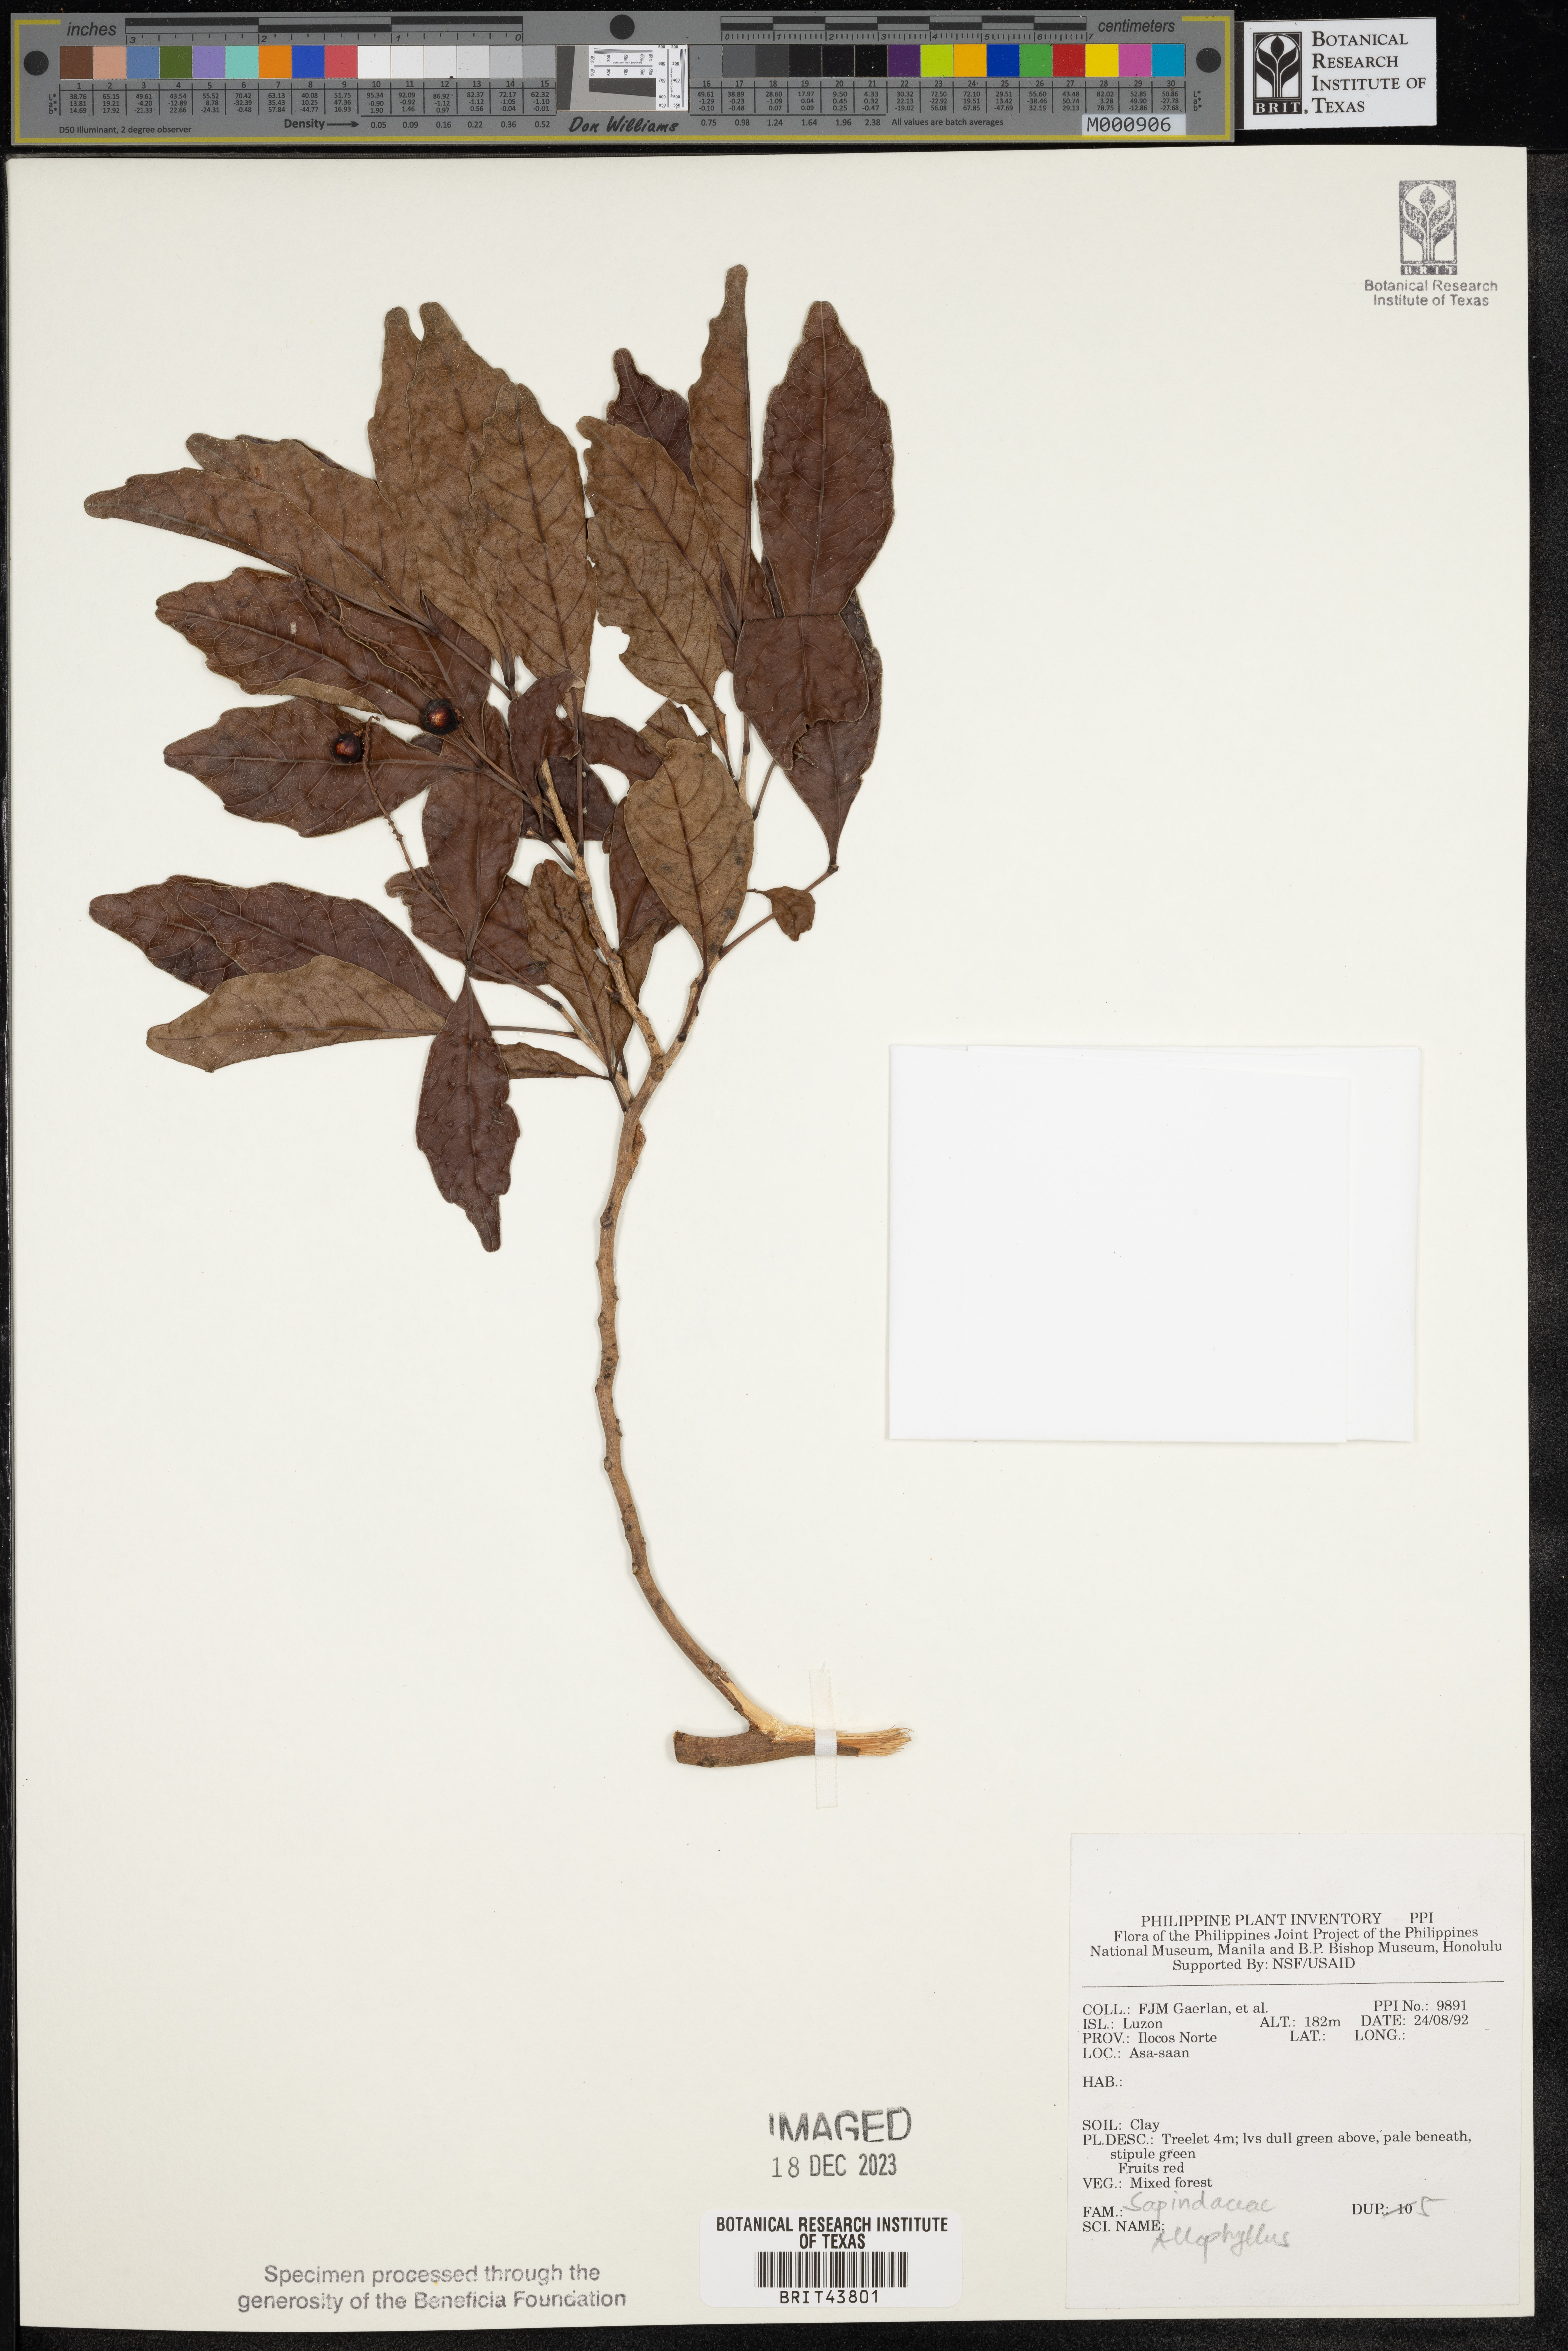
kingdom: Plantae
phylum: Tracheophyta
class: Magnoliopsida
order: Sapindales
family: Sapindaceae
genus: Allophylus
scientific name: Allophylus
